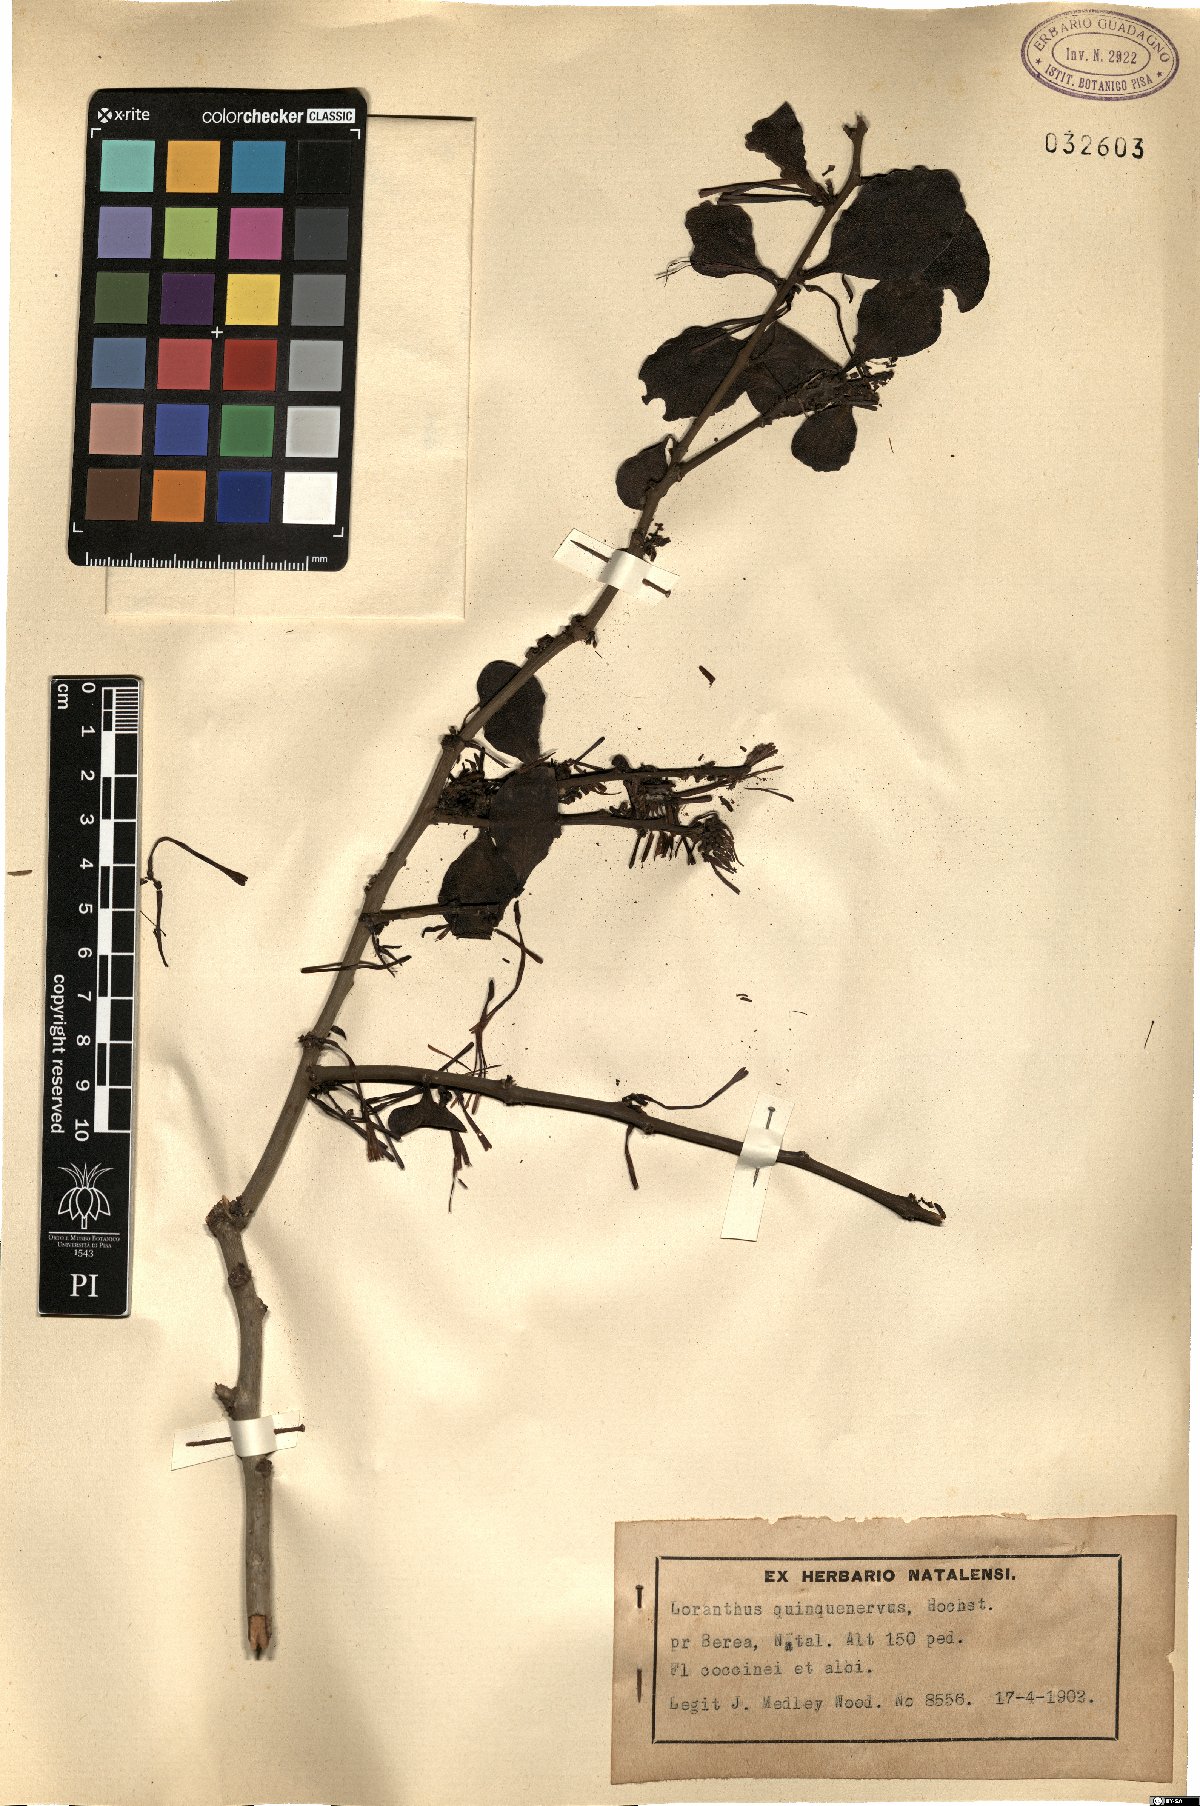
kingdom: Plantae
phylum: Tracheophyta
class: Magnoliopsida
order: Santalales
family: Loranthaceae
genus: Oncocalyx
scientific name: Oncocalyx quinquenervius
